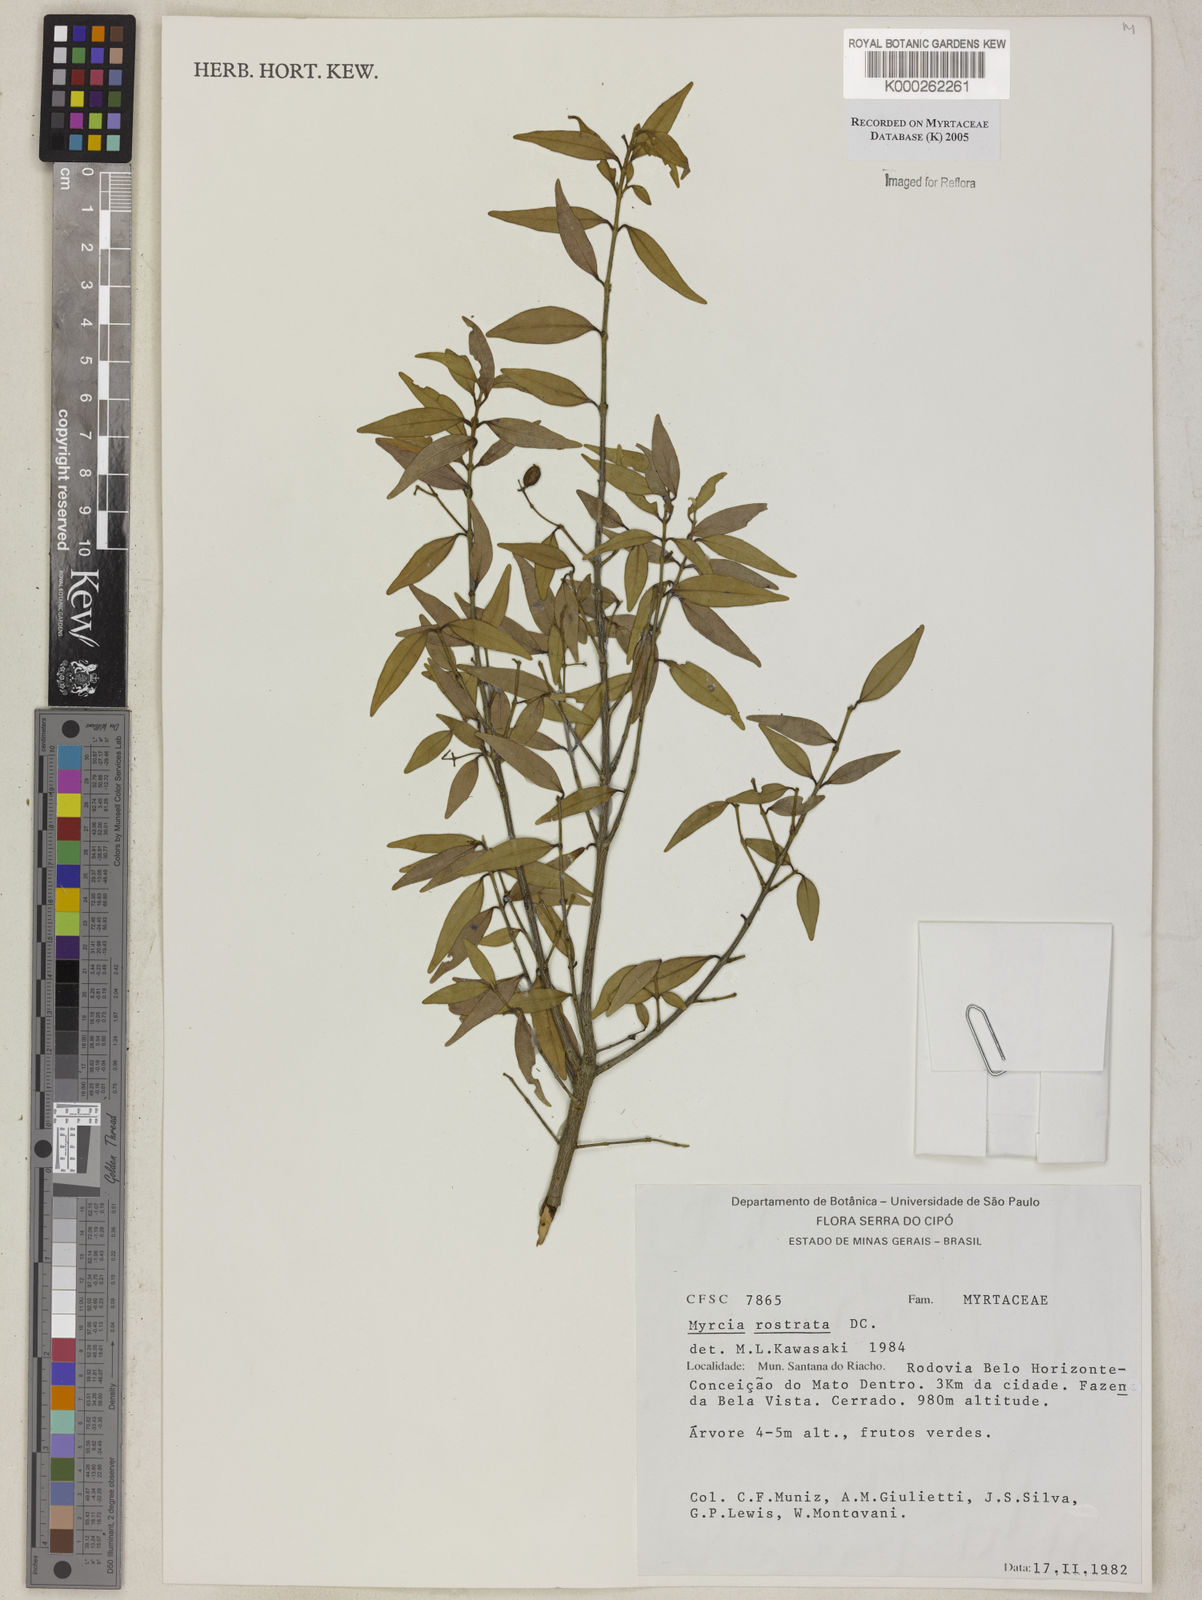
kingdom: Plantae
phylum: Tracheophyta
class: Magnoliopsida
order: Myrtales
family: Myrtaceae
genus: Myrcia
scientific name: Myrcia splendens
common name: Surinam cherry
